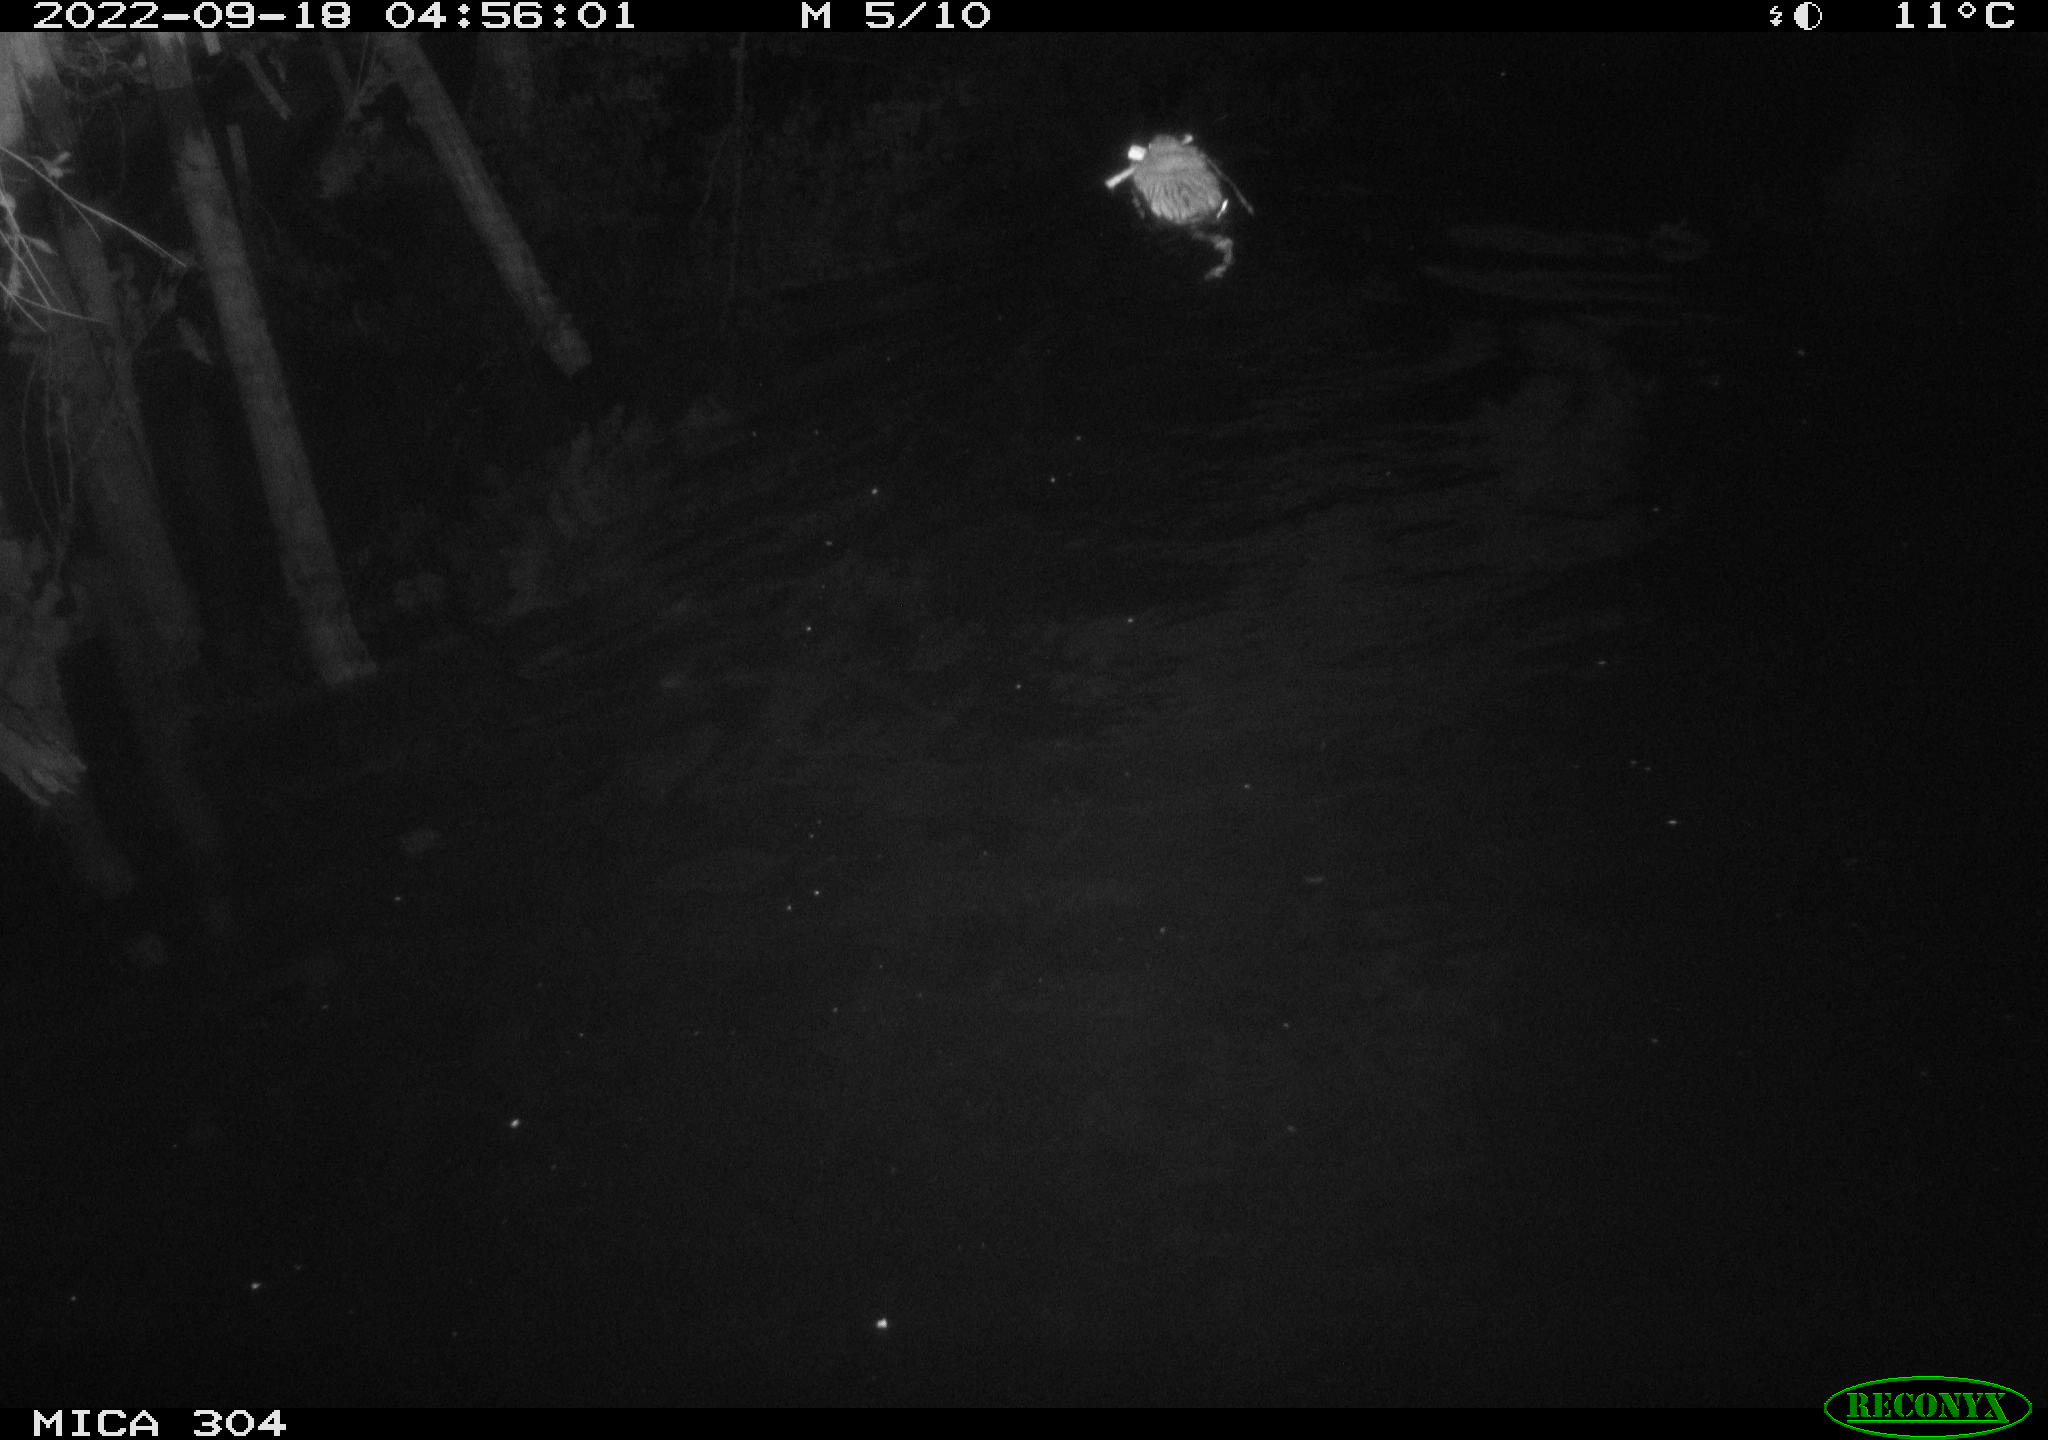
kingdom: Animalia
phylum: Chordata
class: Mammalia
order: Rodentia
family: Cricetidae
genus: Ondatra
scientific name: Ondatra zibethicus
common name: Muskrat
